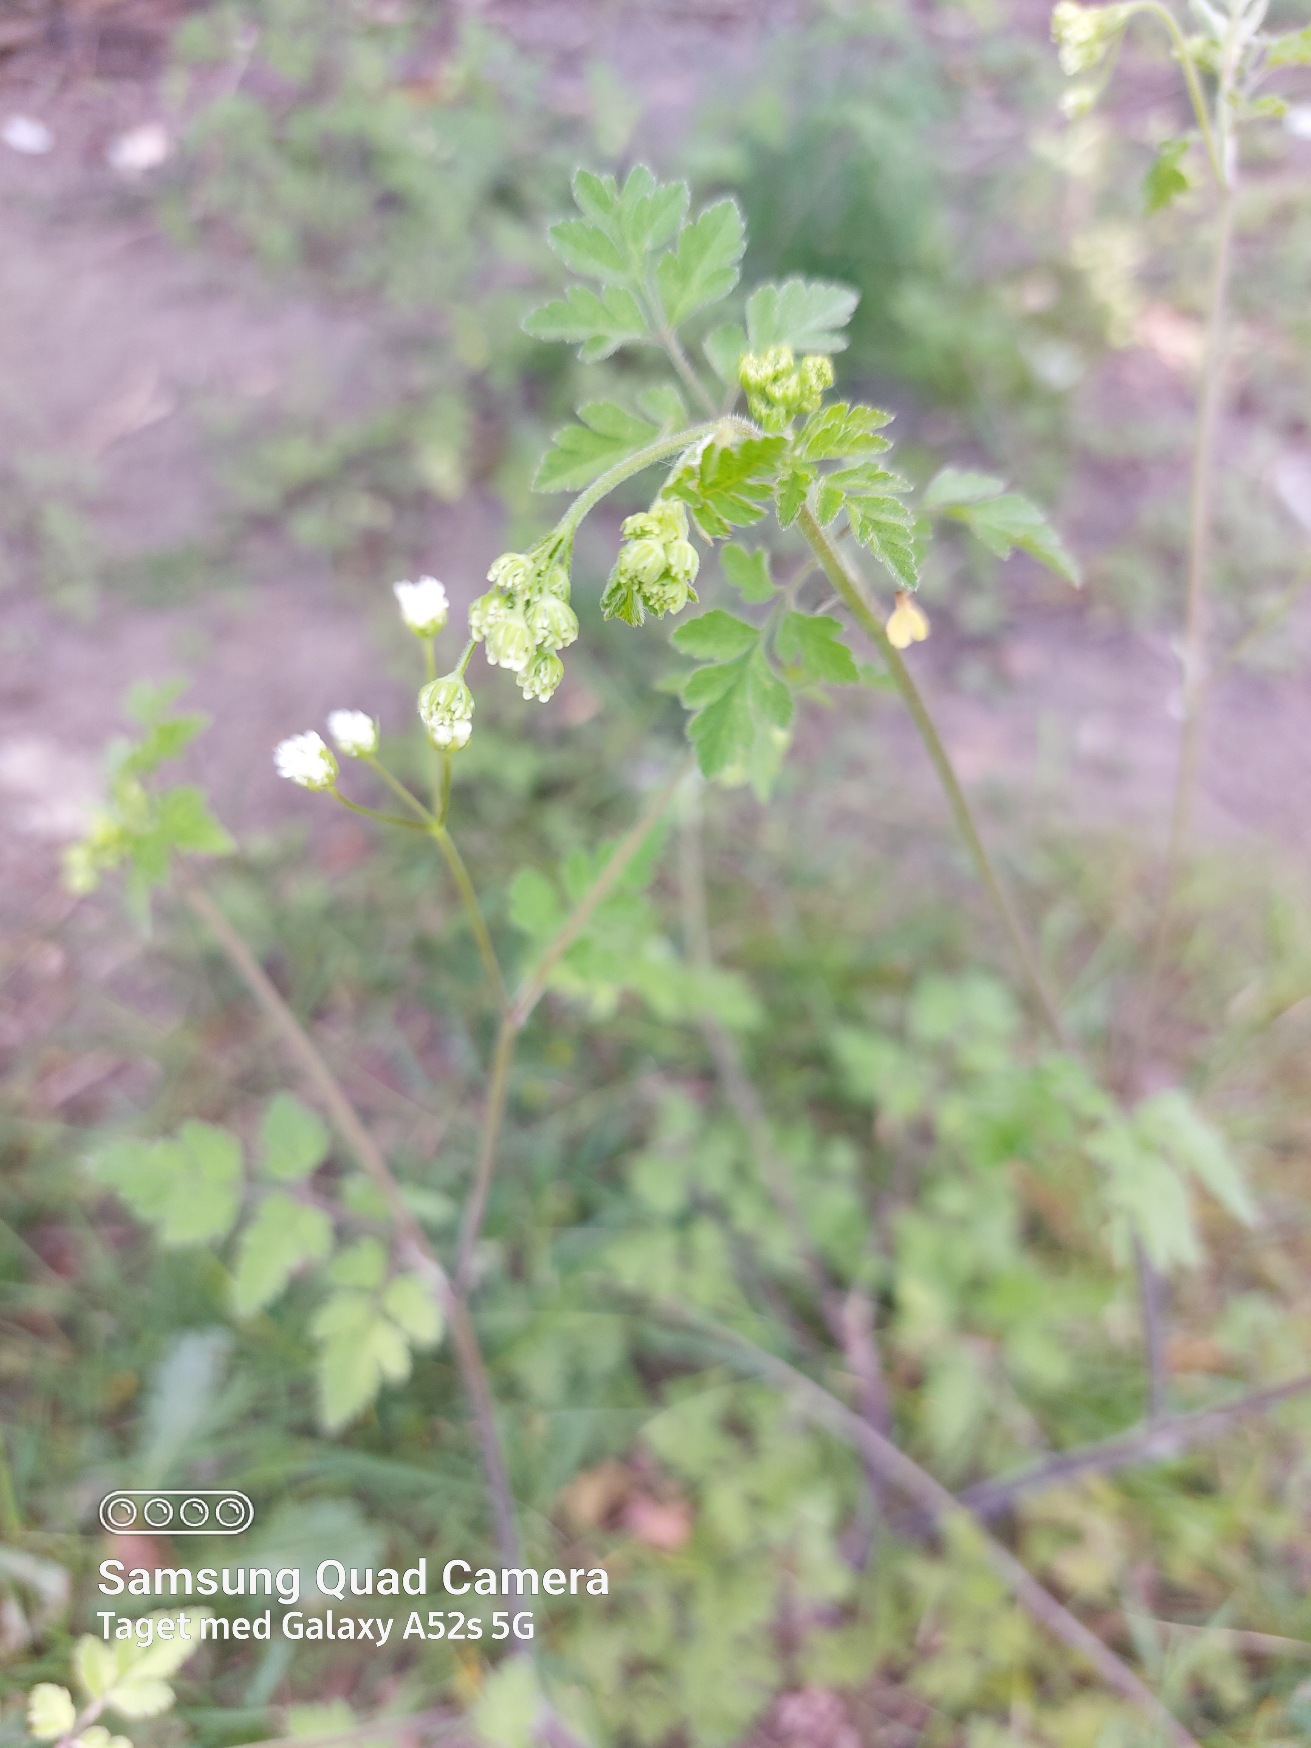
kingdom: Plantae
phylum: Tracheophyta
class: Magnoliopsida
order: Apiales
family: Apiaceae
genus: Chaerophyllum
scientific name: Chaerophyllum temulum
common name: Almindelig hulsvøb
